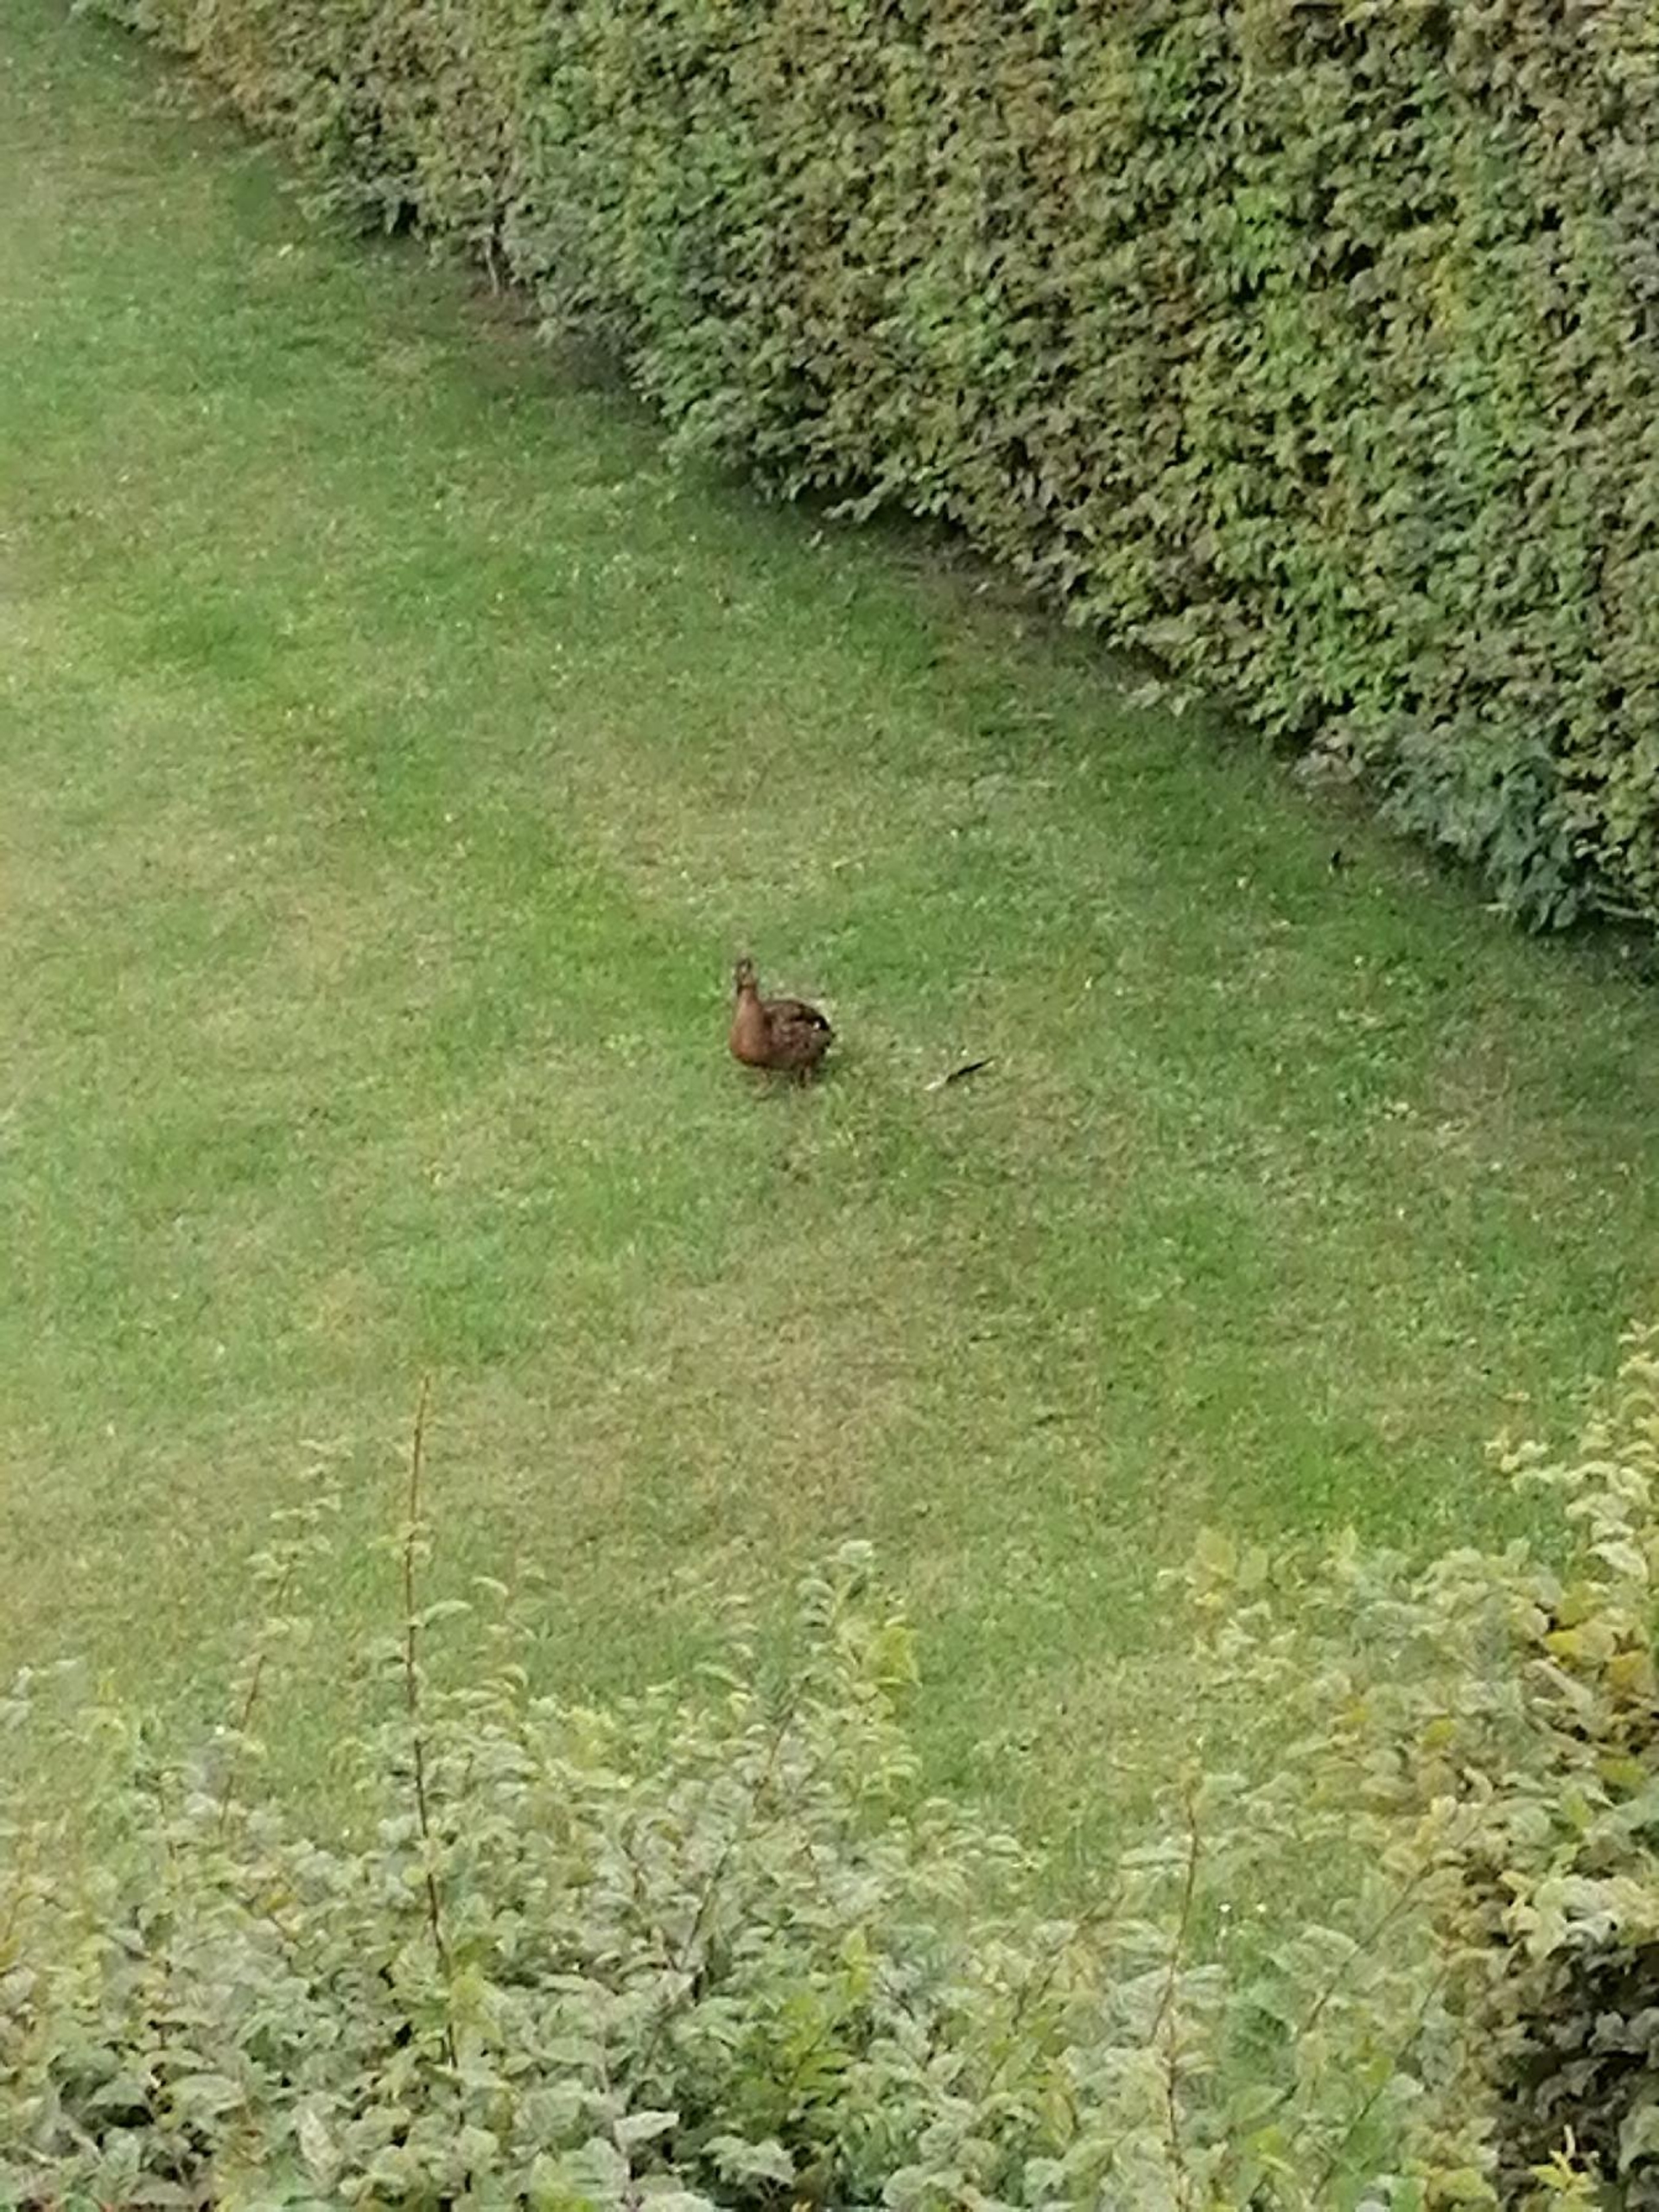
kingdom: Animalia
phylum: Chordata
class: Aves
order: Anseriformes
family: Anatidae
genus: Anas
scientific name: Anas platyrhynchos
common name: Gråand
